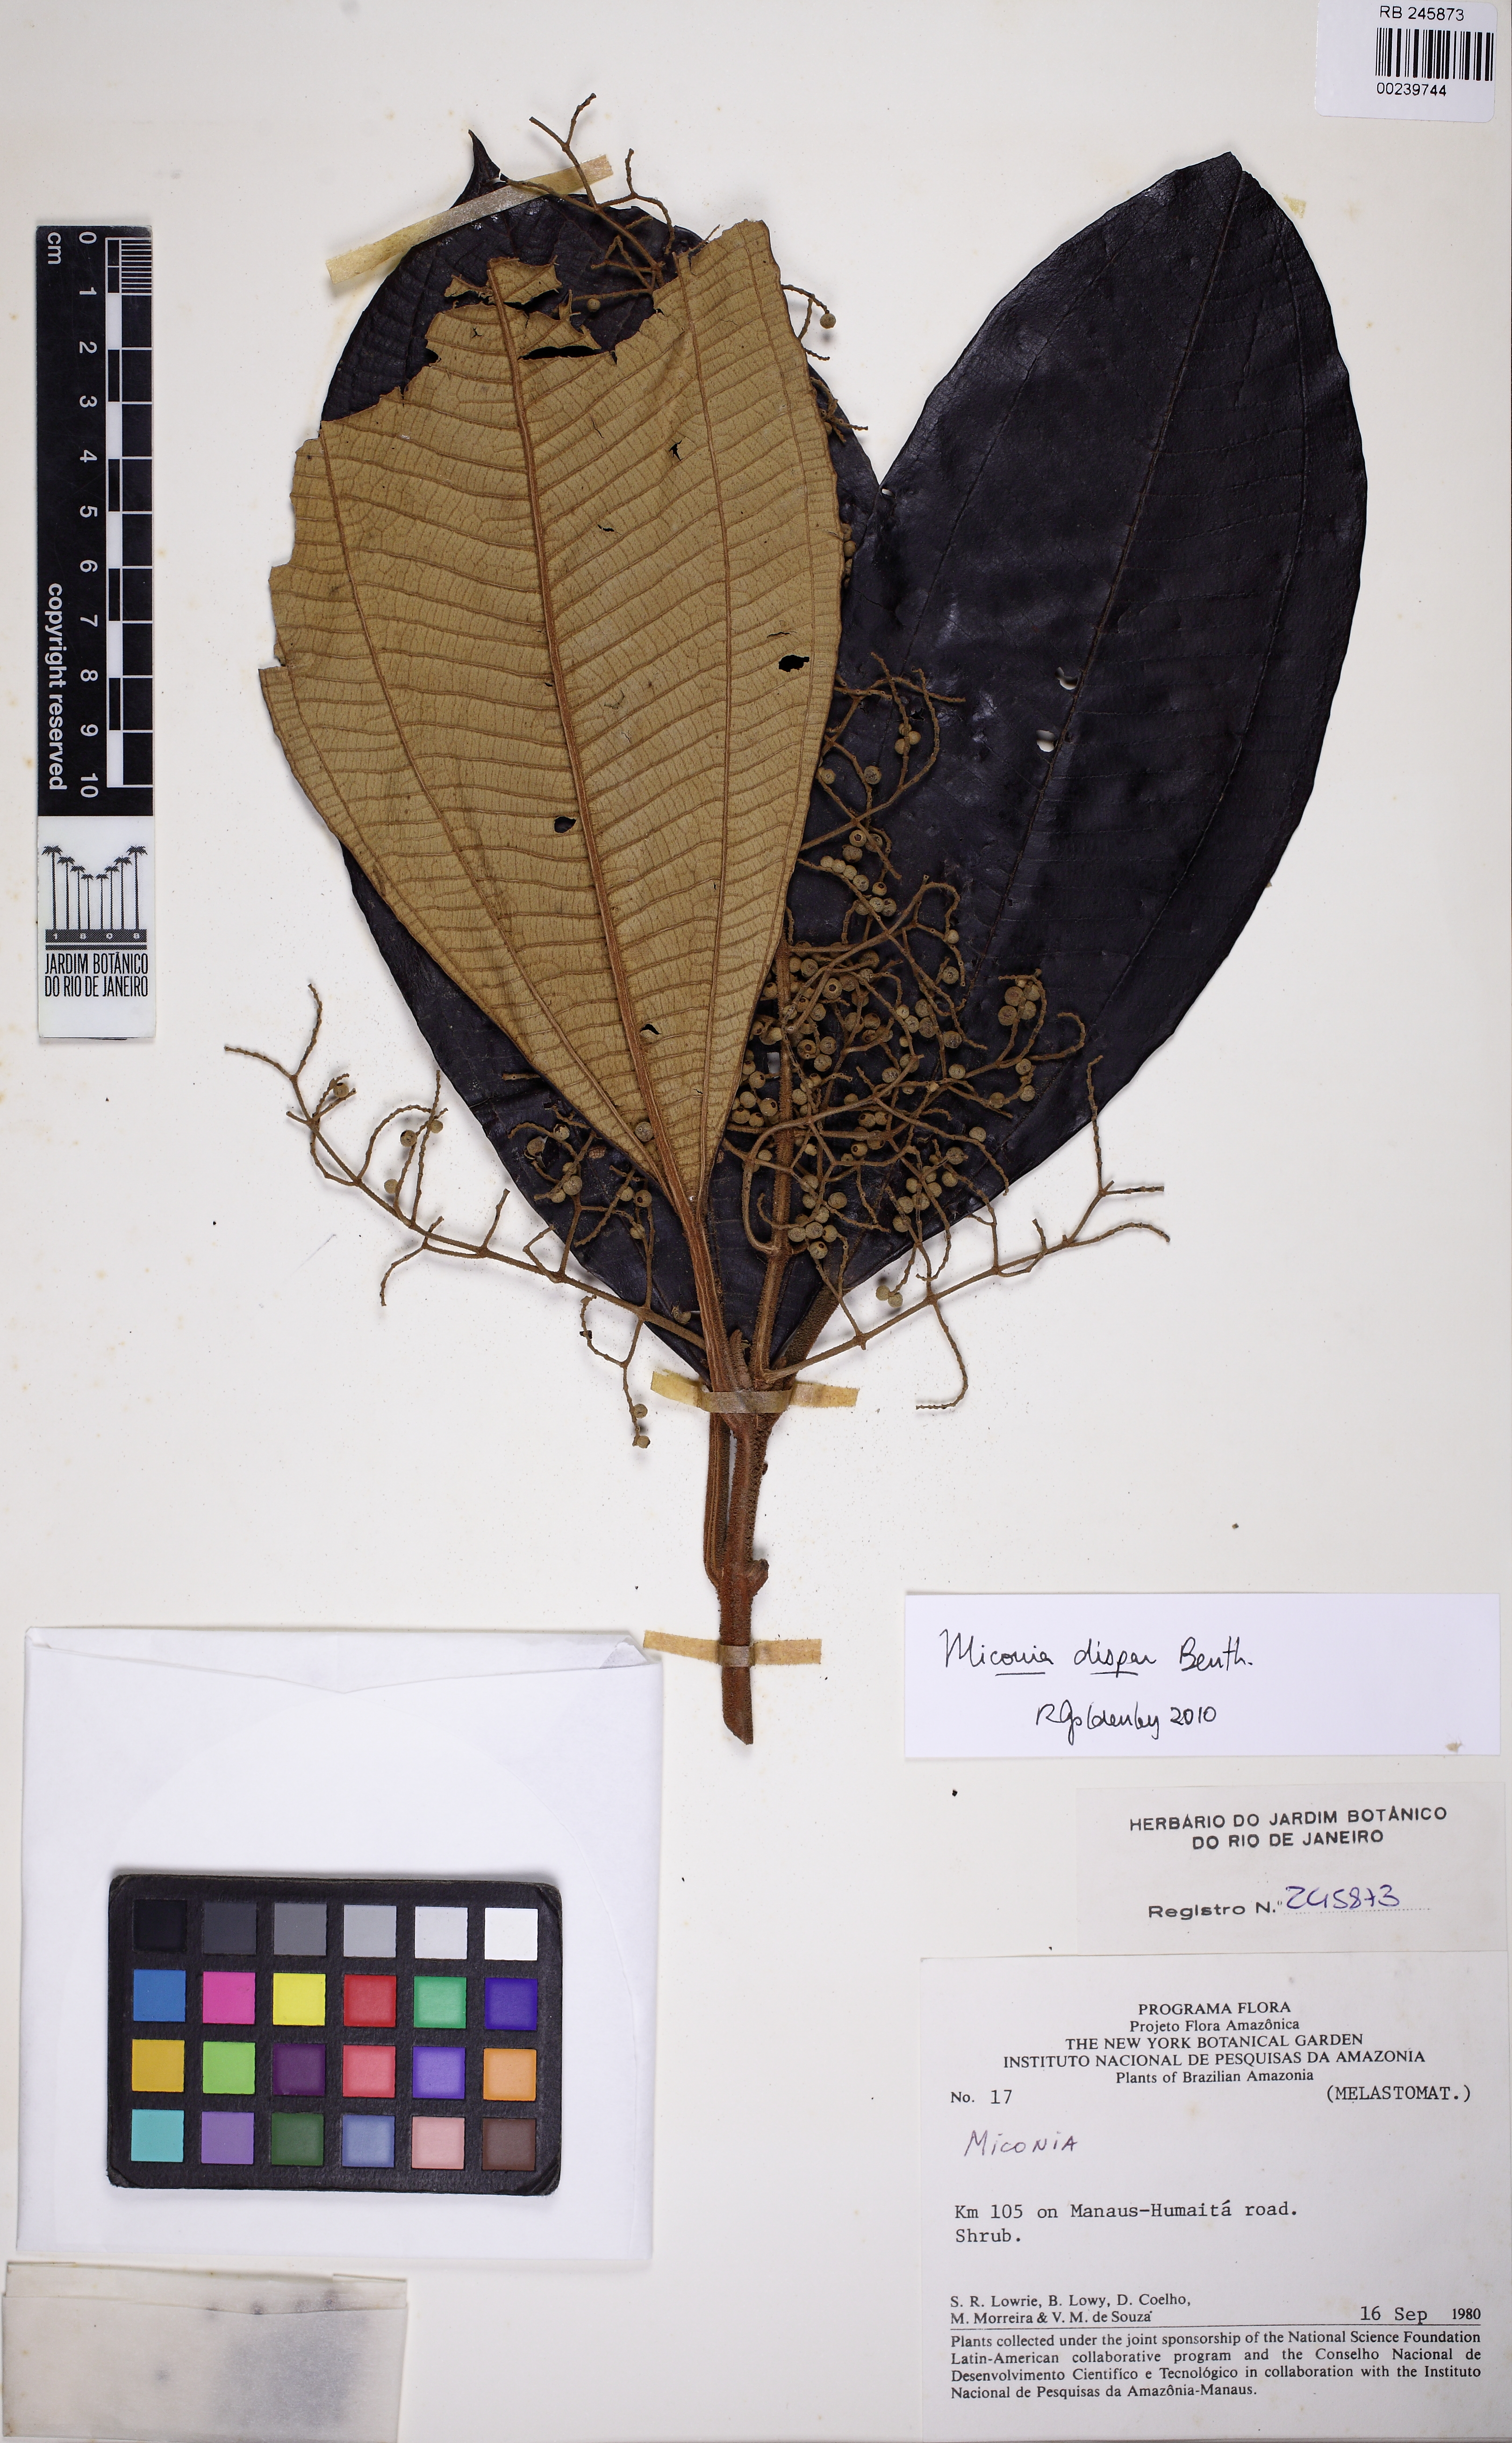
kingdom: Plantae
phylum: Tracheophyta
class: Magnoliopsida
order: Myrtales
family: Melastomataceae
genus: Miconia
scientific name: Miconia dispar
